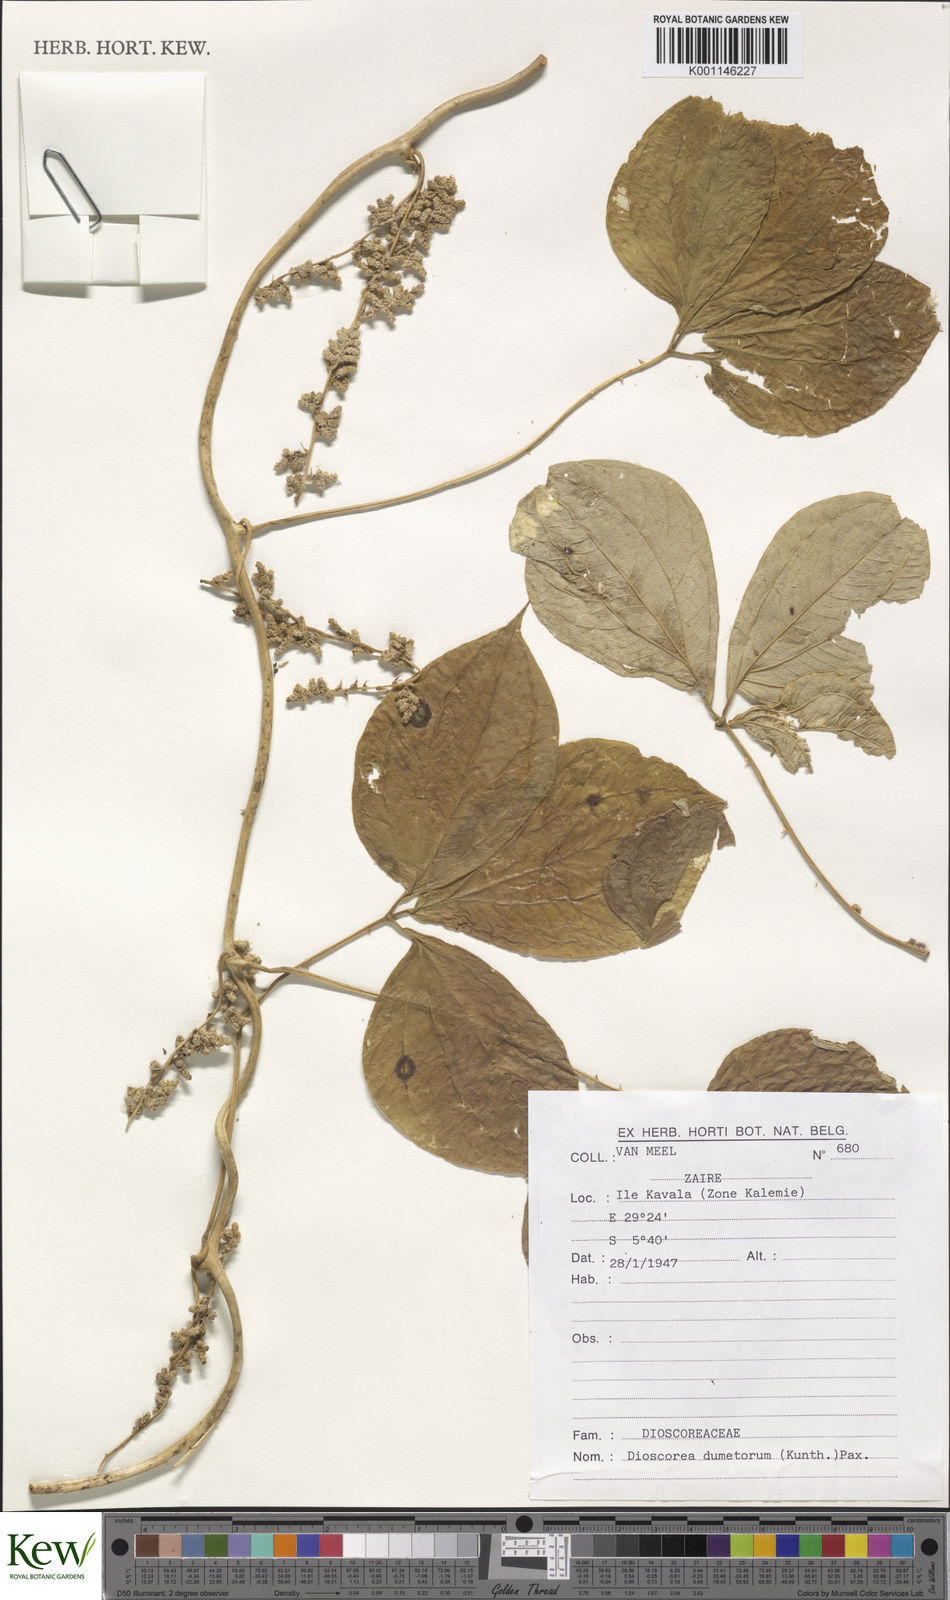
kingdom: Plantae
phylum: Tracheophyta
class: Liliopsida
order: Dioscoreales
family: Dioscoreaceae
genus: Dioscorea
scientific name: Dioscorea dumetorum
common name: African bitter yam
